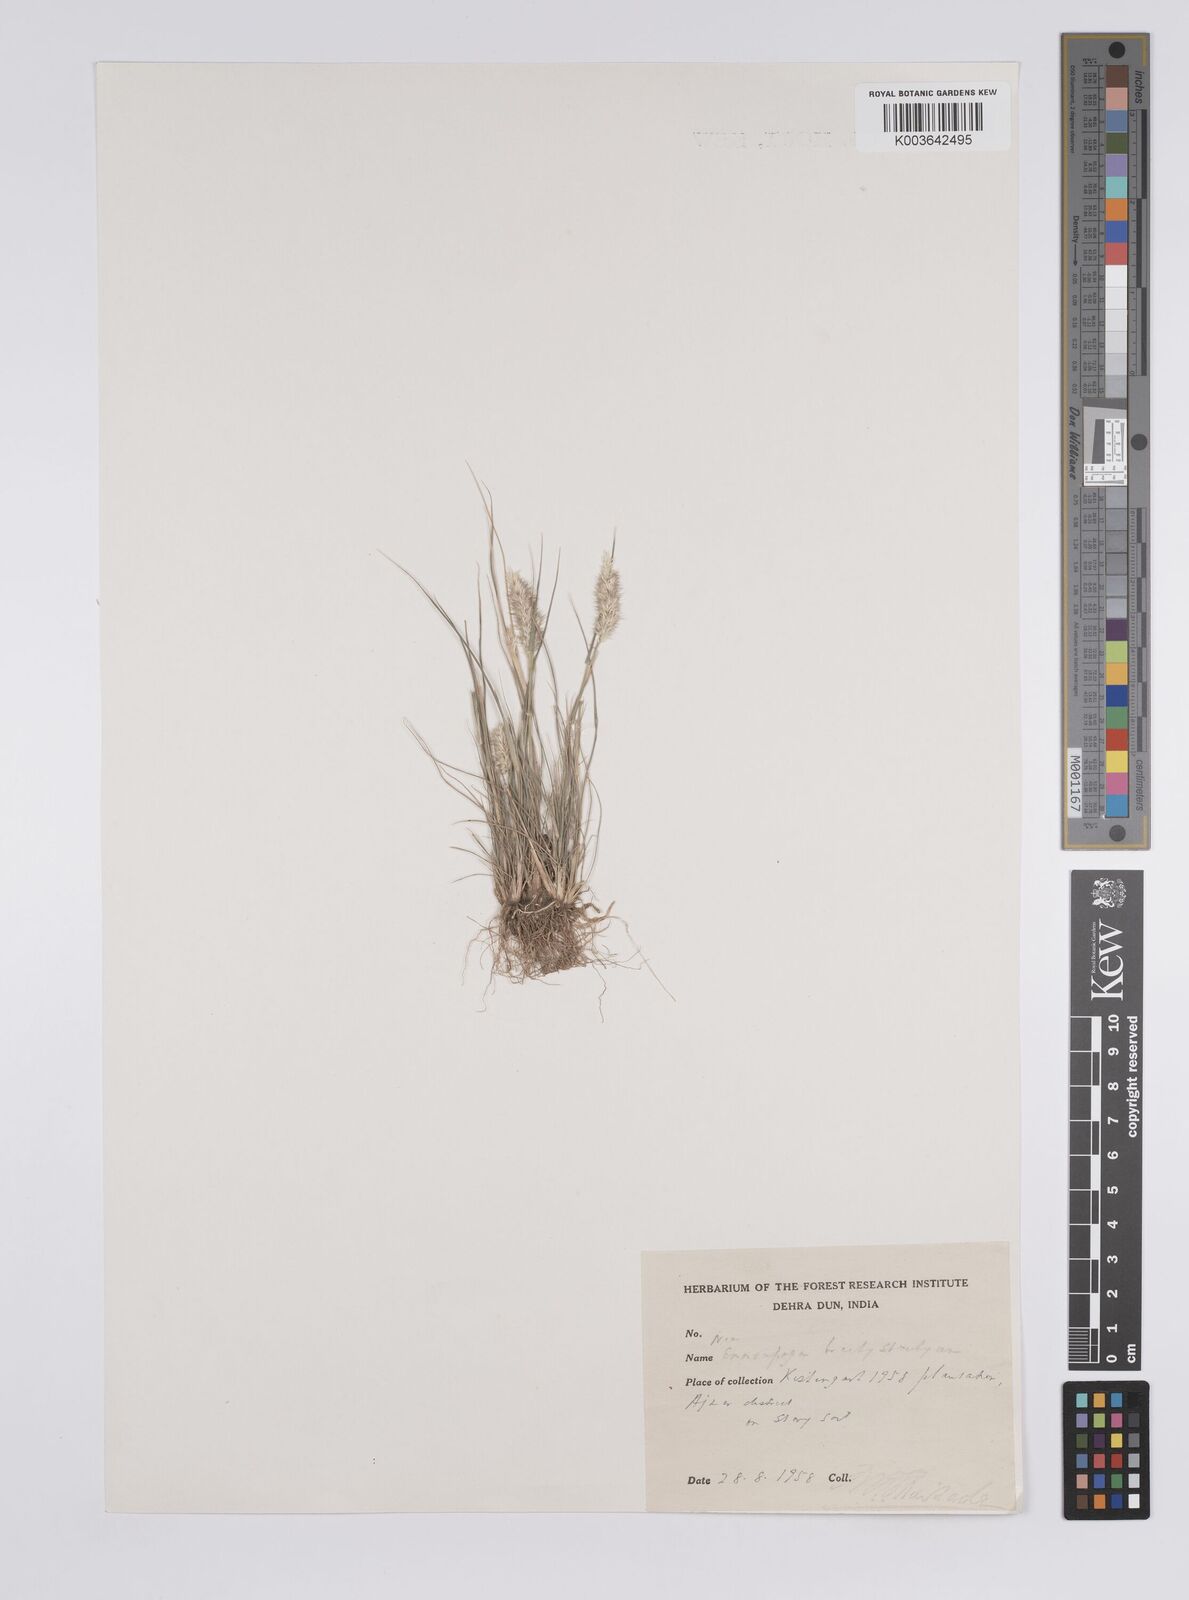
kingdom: Plantae
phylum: Tracheophyta
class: Liliopsida
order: Poales
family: Poaceae
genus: Enneapogon
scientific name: Enneapogon desvauxii
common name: Feather pappus grass
